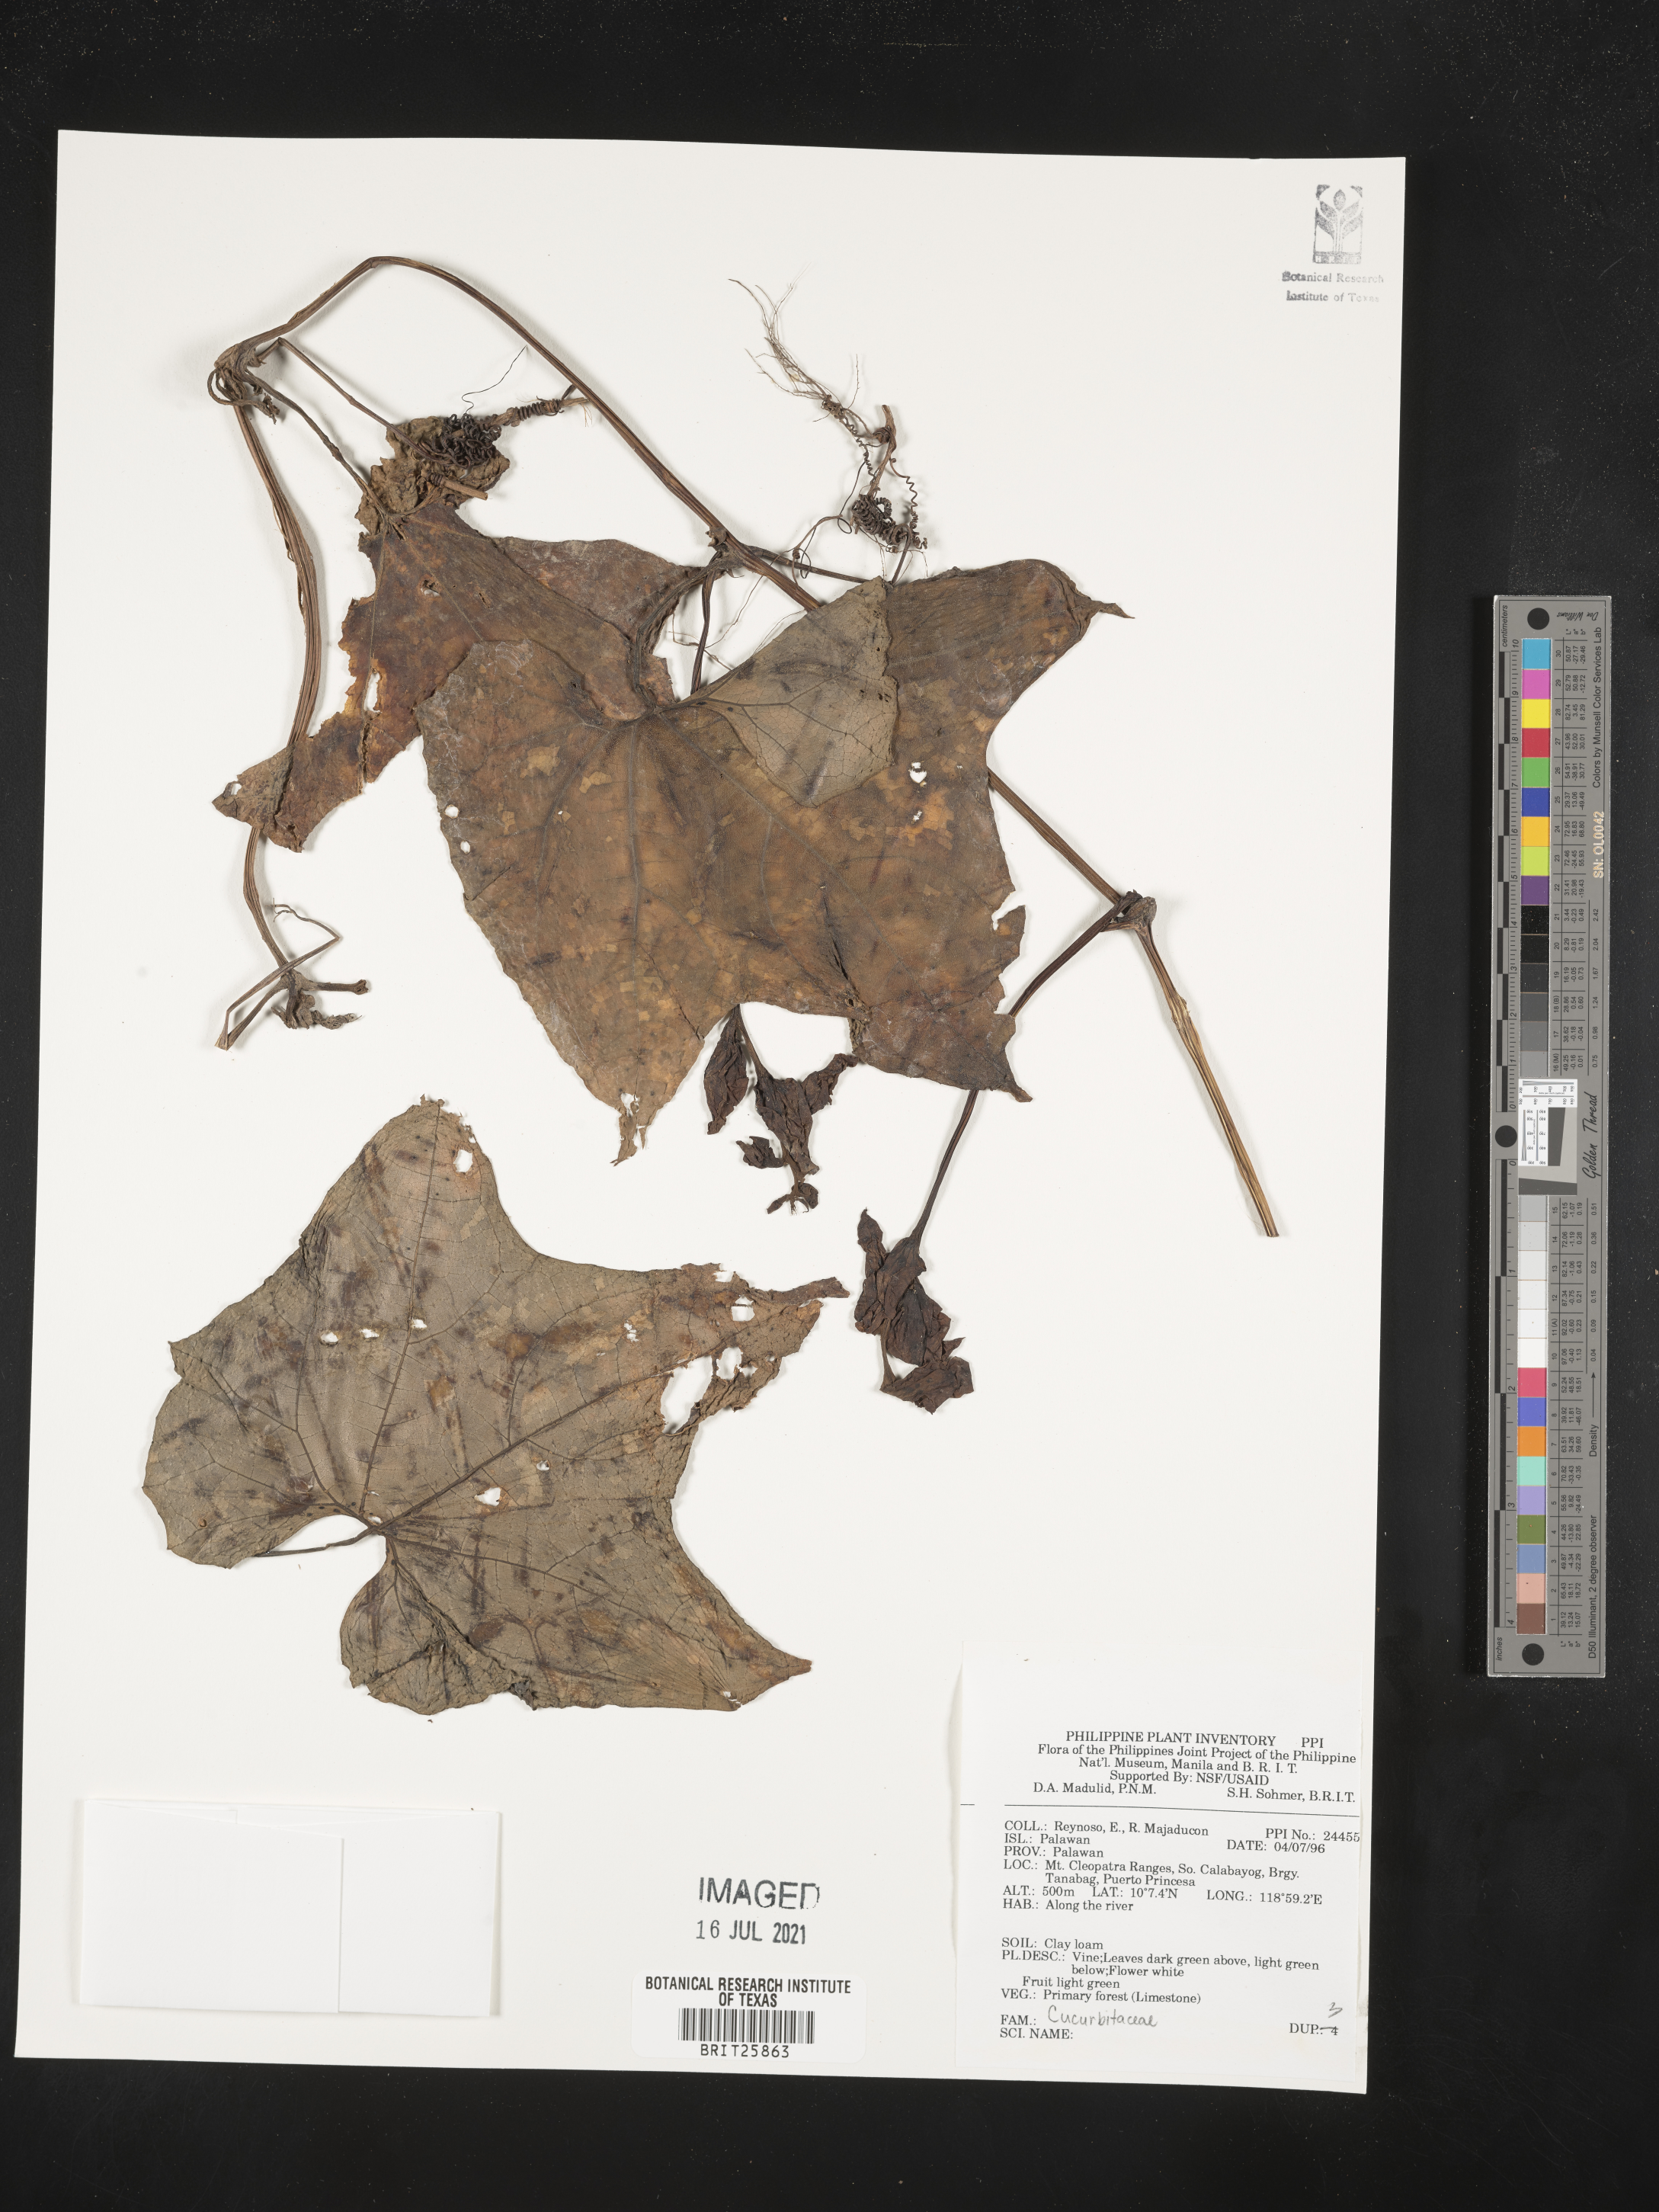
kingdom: Plantae
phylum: Tracheophyta
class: Magnoliopsida
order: Cucurbitales
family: Cucurbitaceae
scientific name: Cucurbitaceae
